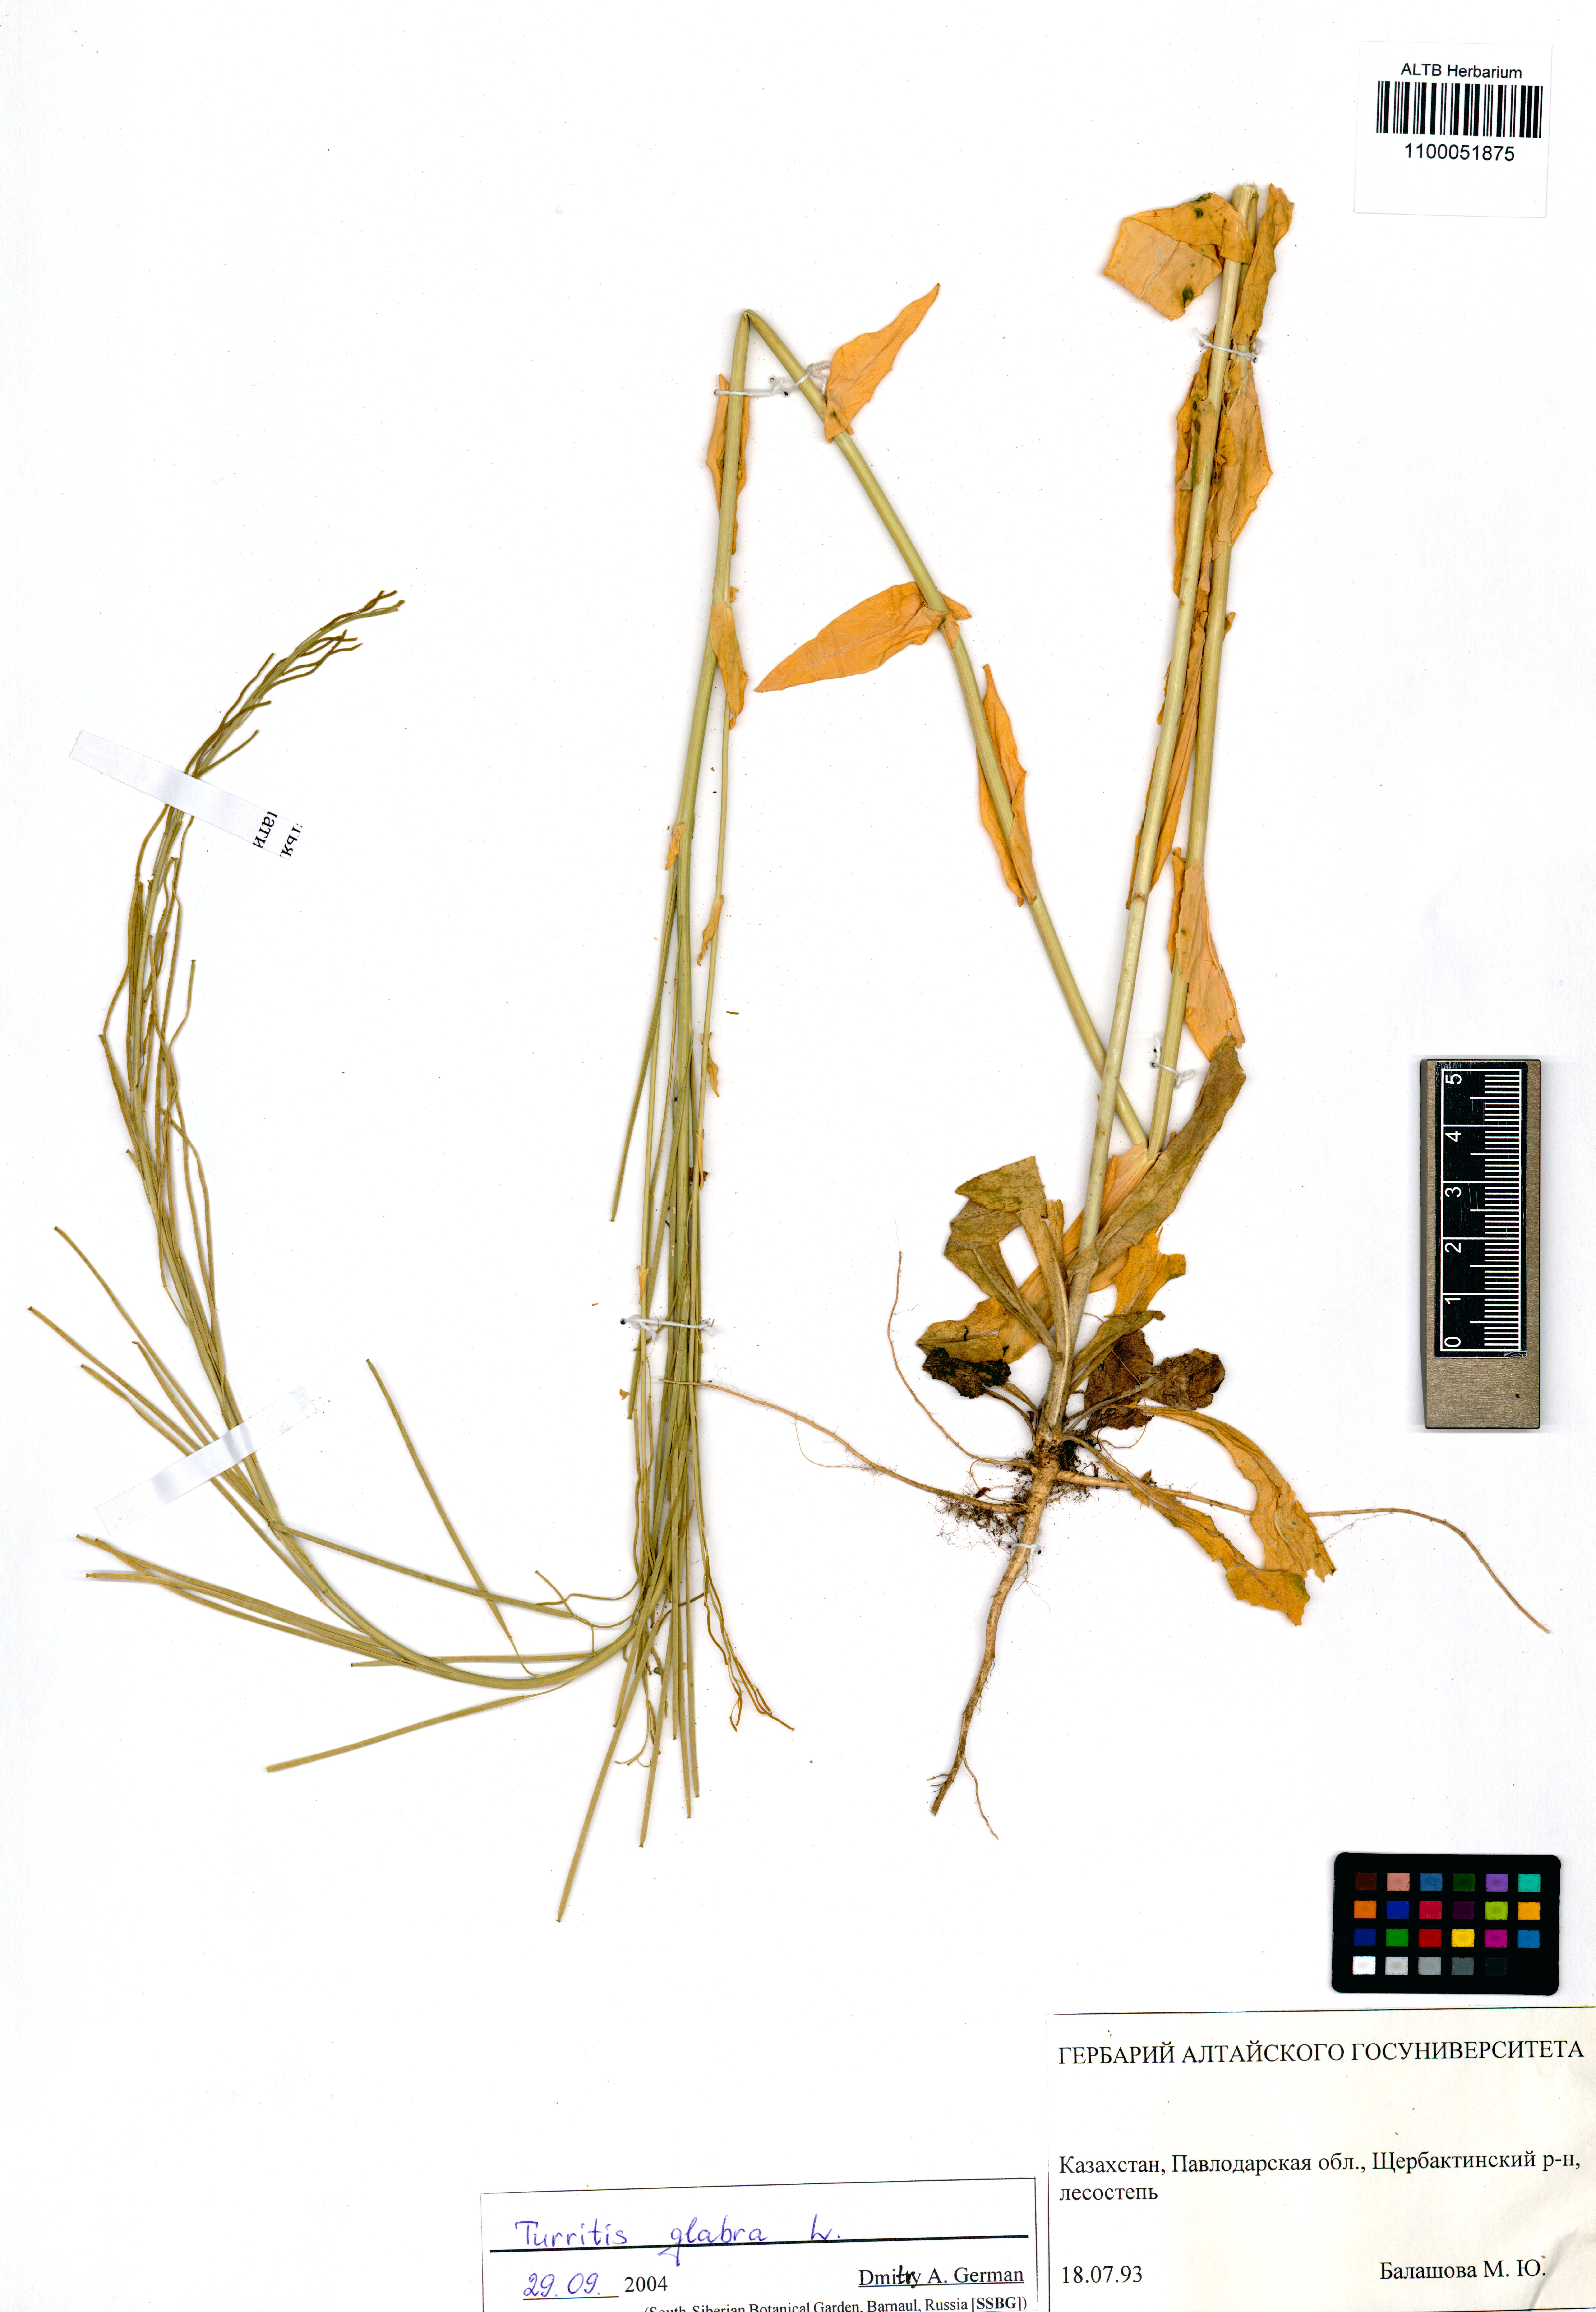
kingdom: Plantae
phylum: Tracheophyta
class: Magnoliopsida
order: Brassicales
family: Brassicaceae
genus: Turritis
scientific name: Turritis glabra
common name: Tower rockcress
